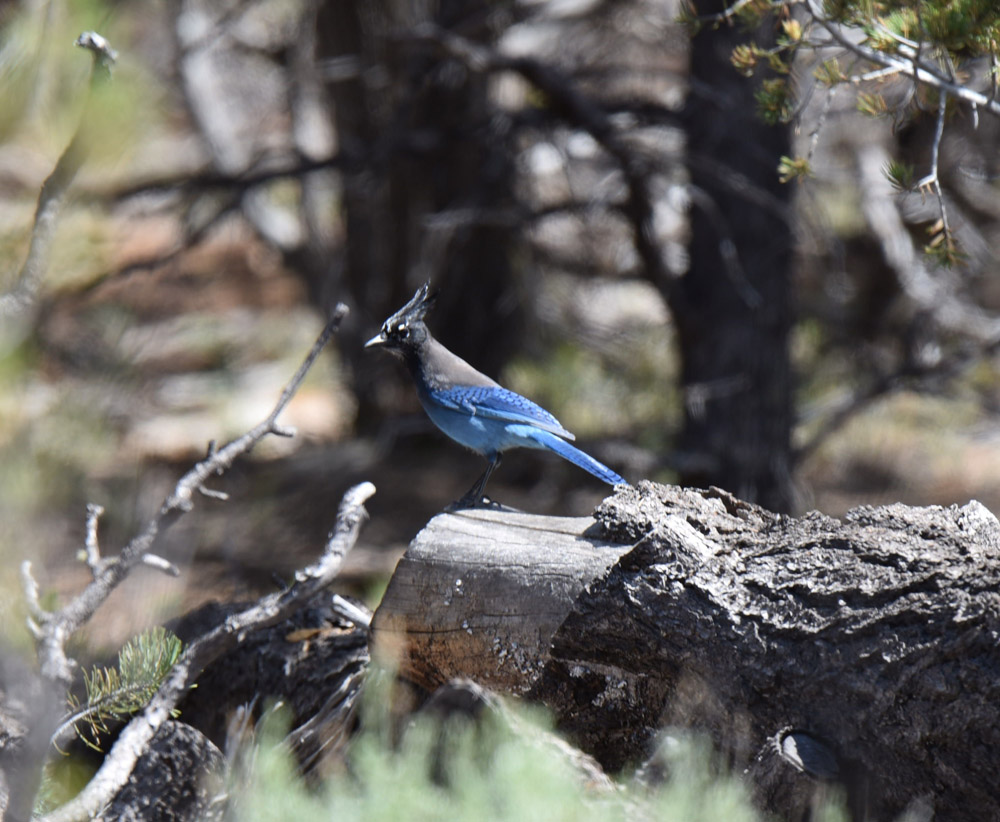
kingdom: Animalia
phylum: Chordata
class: Aves
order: Passeriformes
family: Corvidae
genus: Cyanocitta
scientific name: Cyanocitta stelleri
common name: Steller's jay
